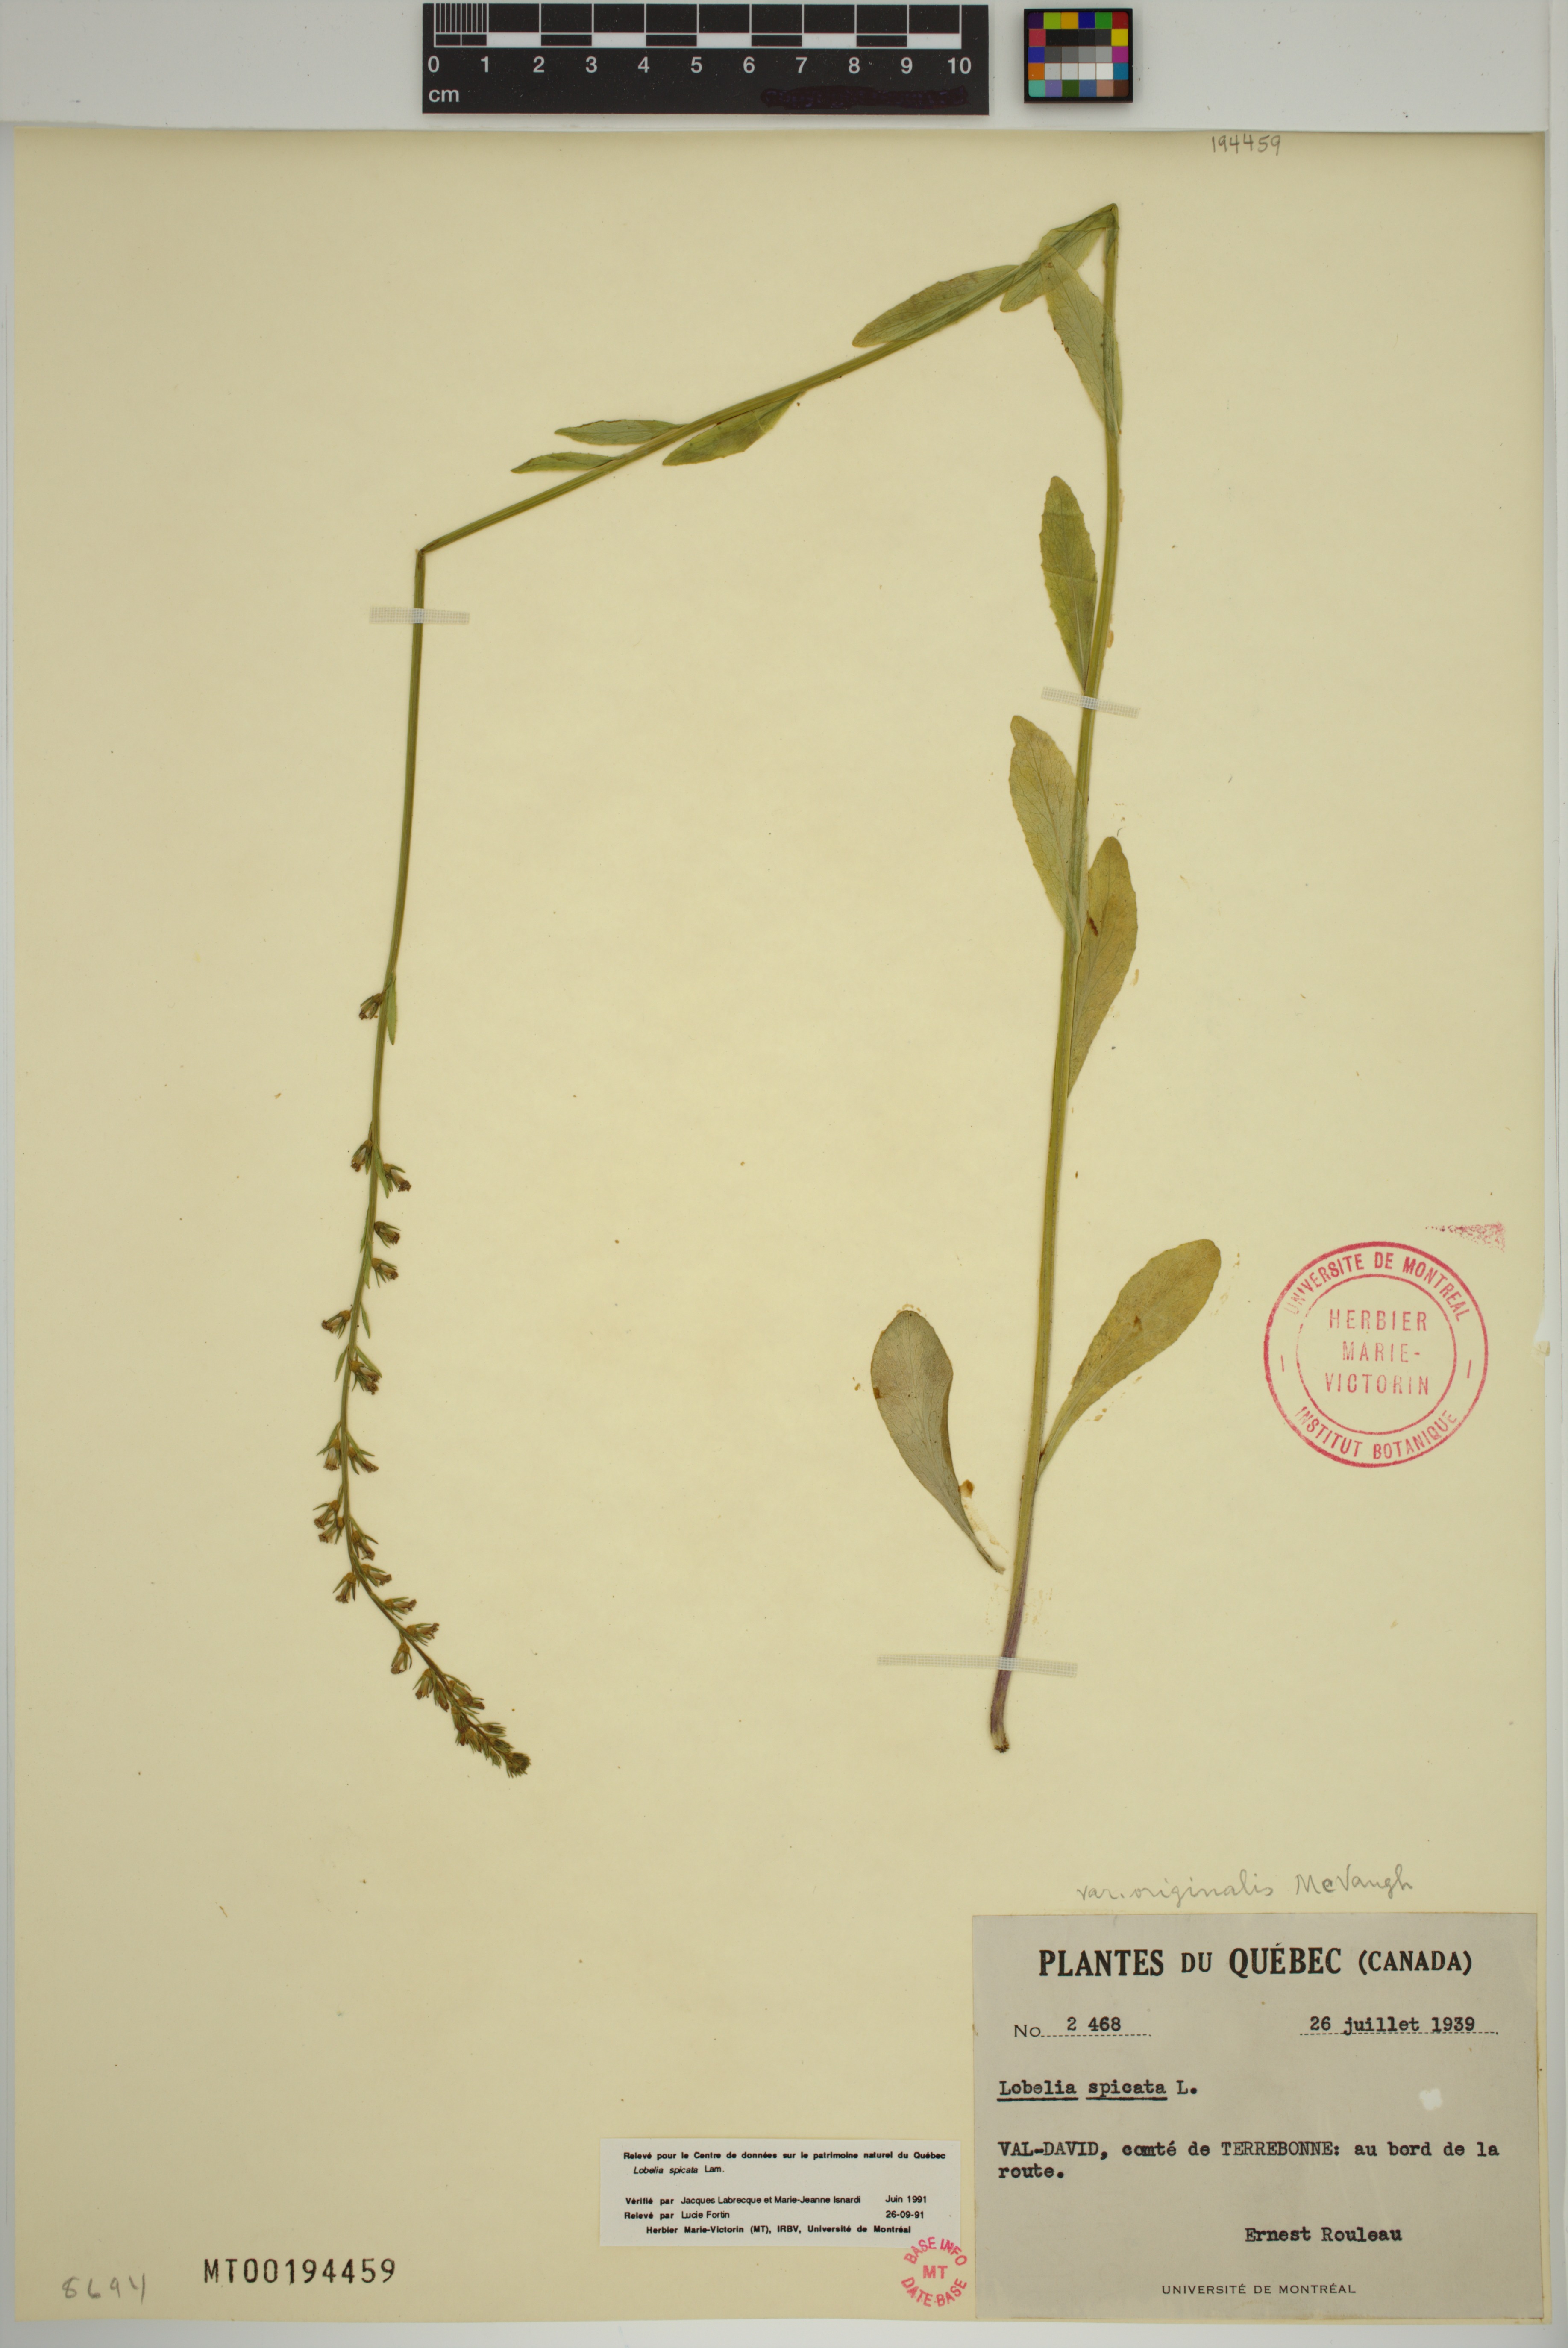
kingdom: Plantae
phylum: Tracheophyta
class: Magnoliopsida
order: Asterales
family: Campanulaceae
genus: Lobelia
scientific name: Lobelia spicata
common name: Pale-spike lobelia
